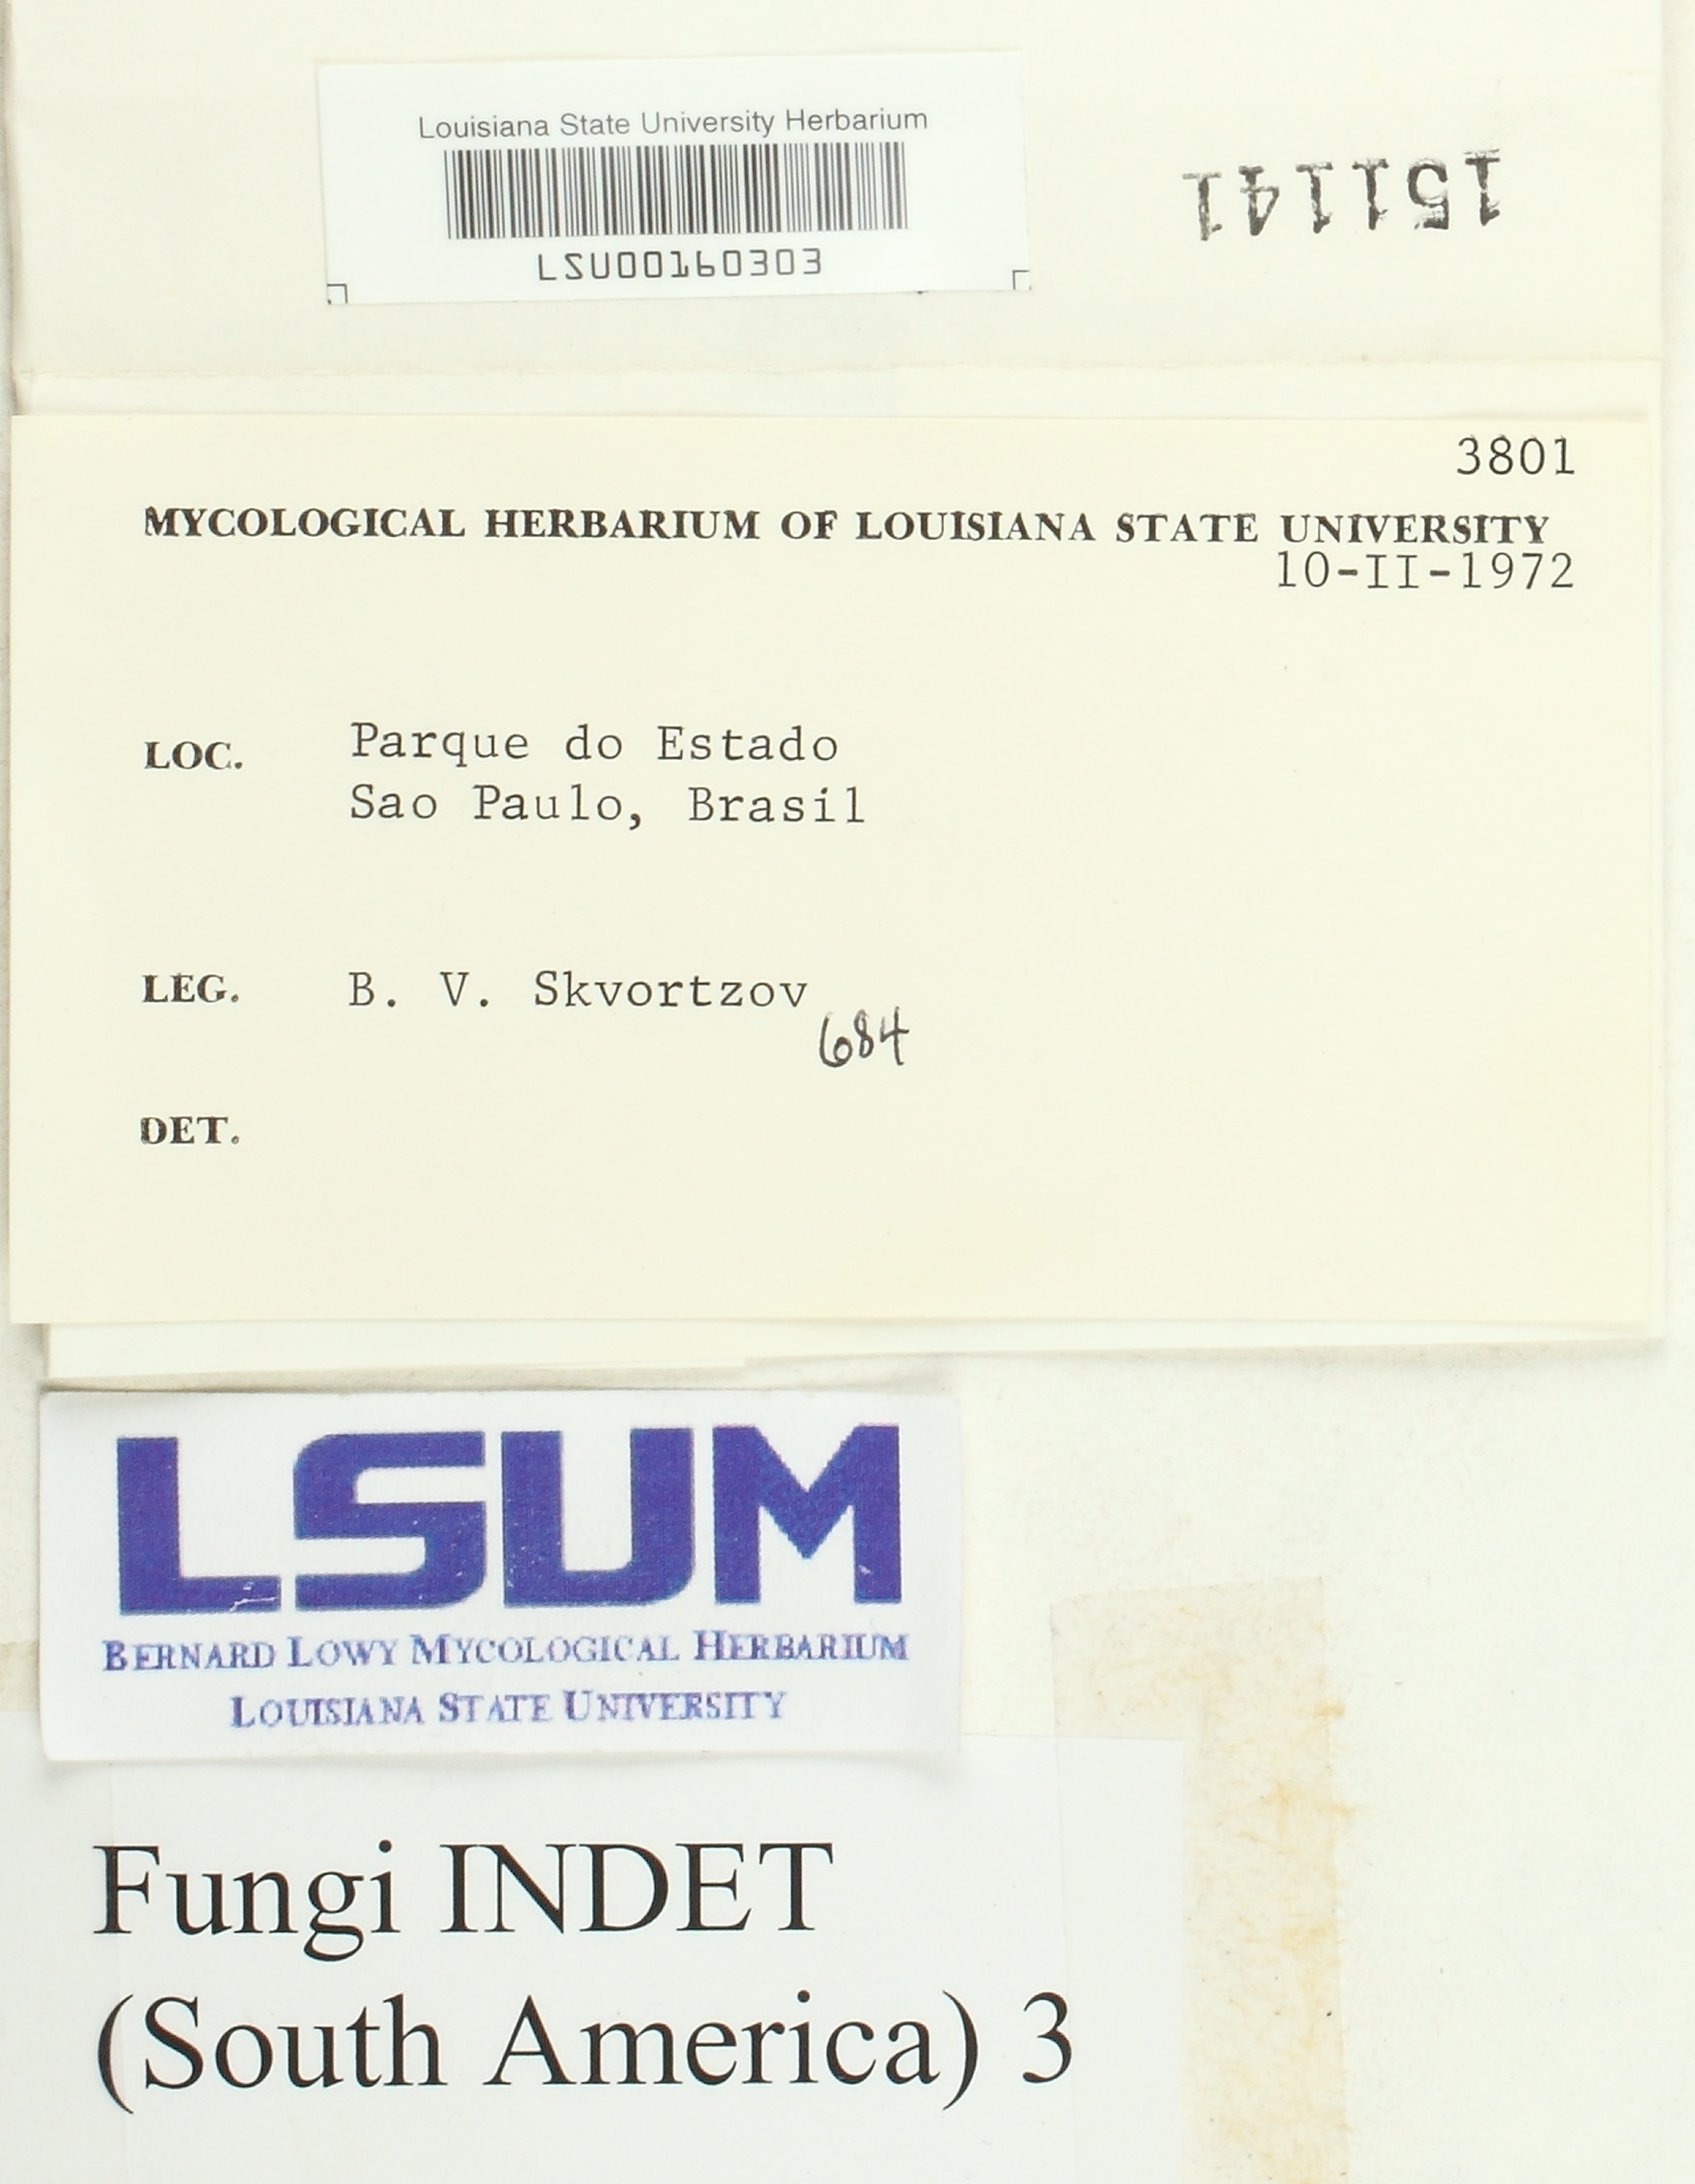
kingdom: Fungi
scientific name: Fungi
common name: Fungi
